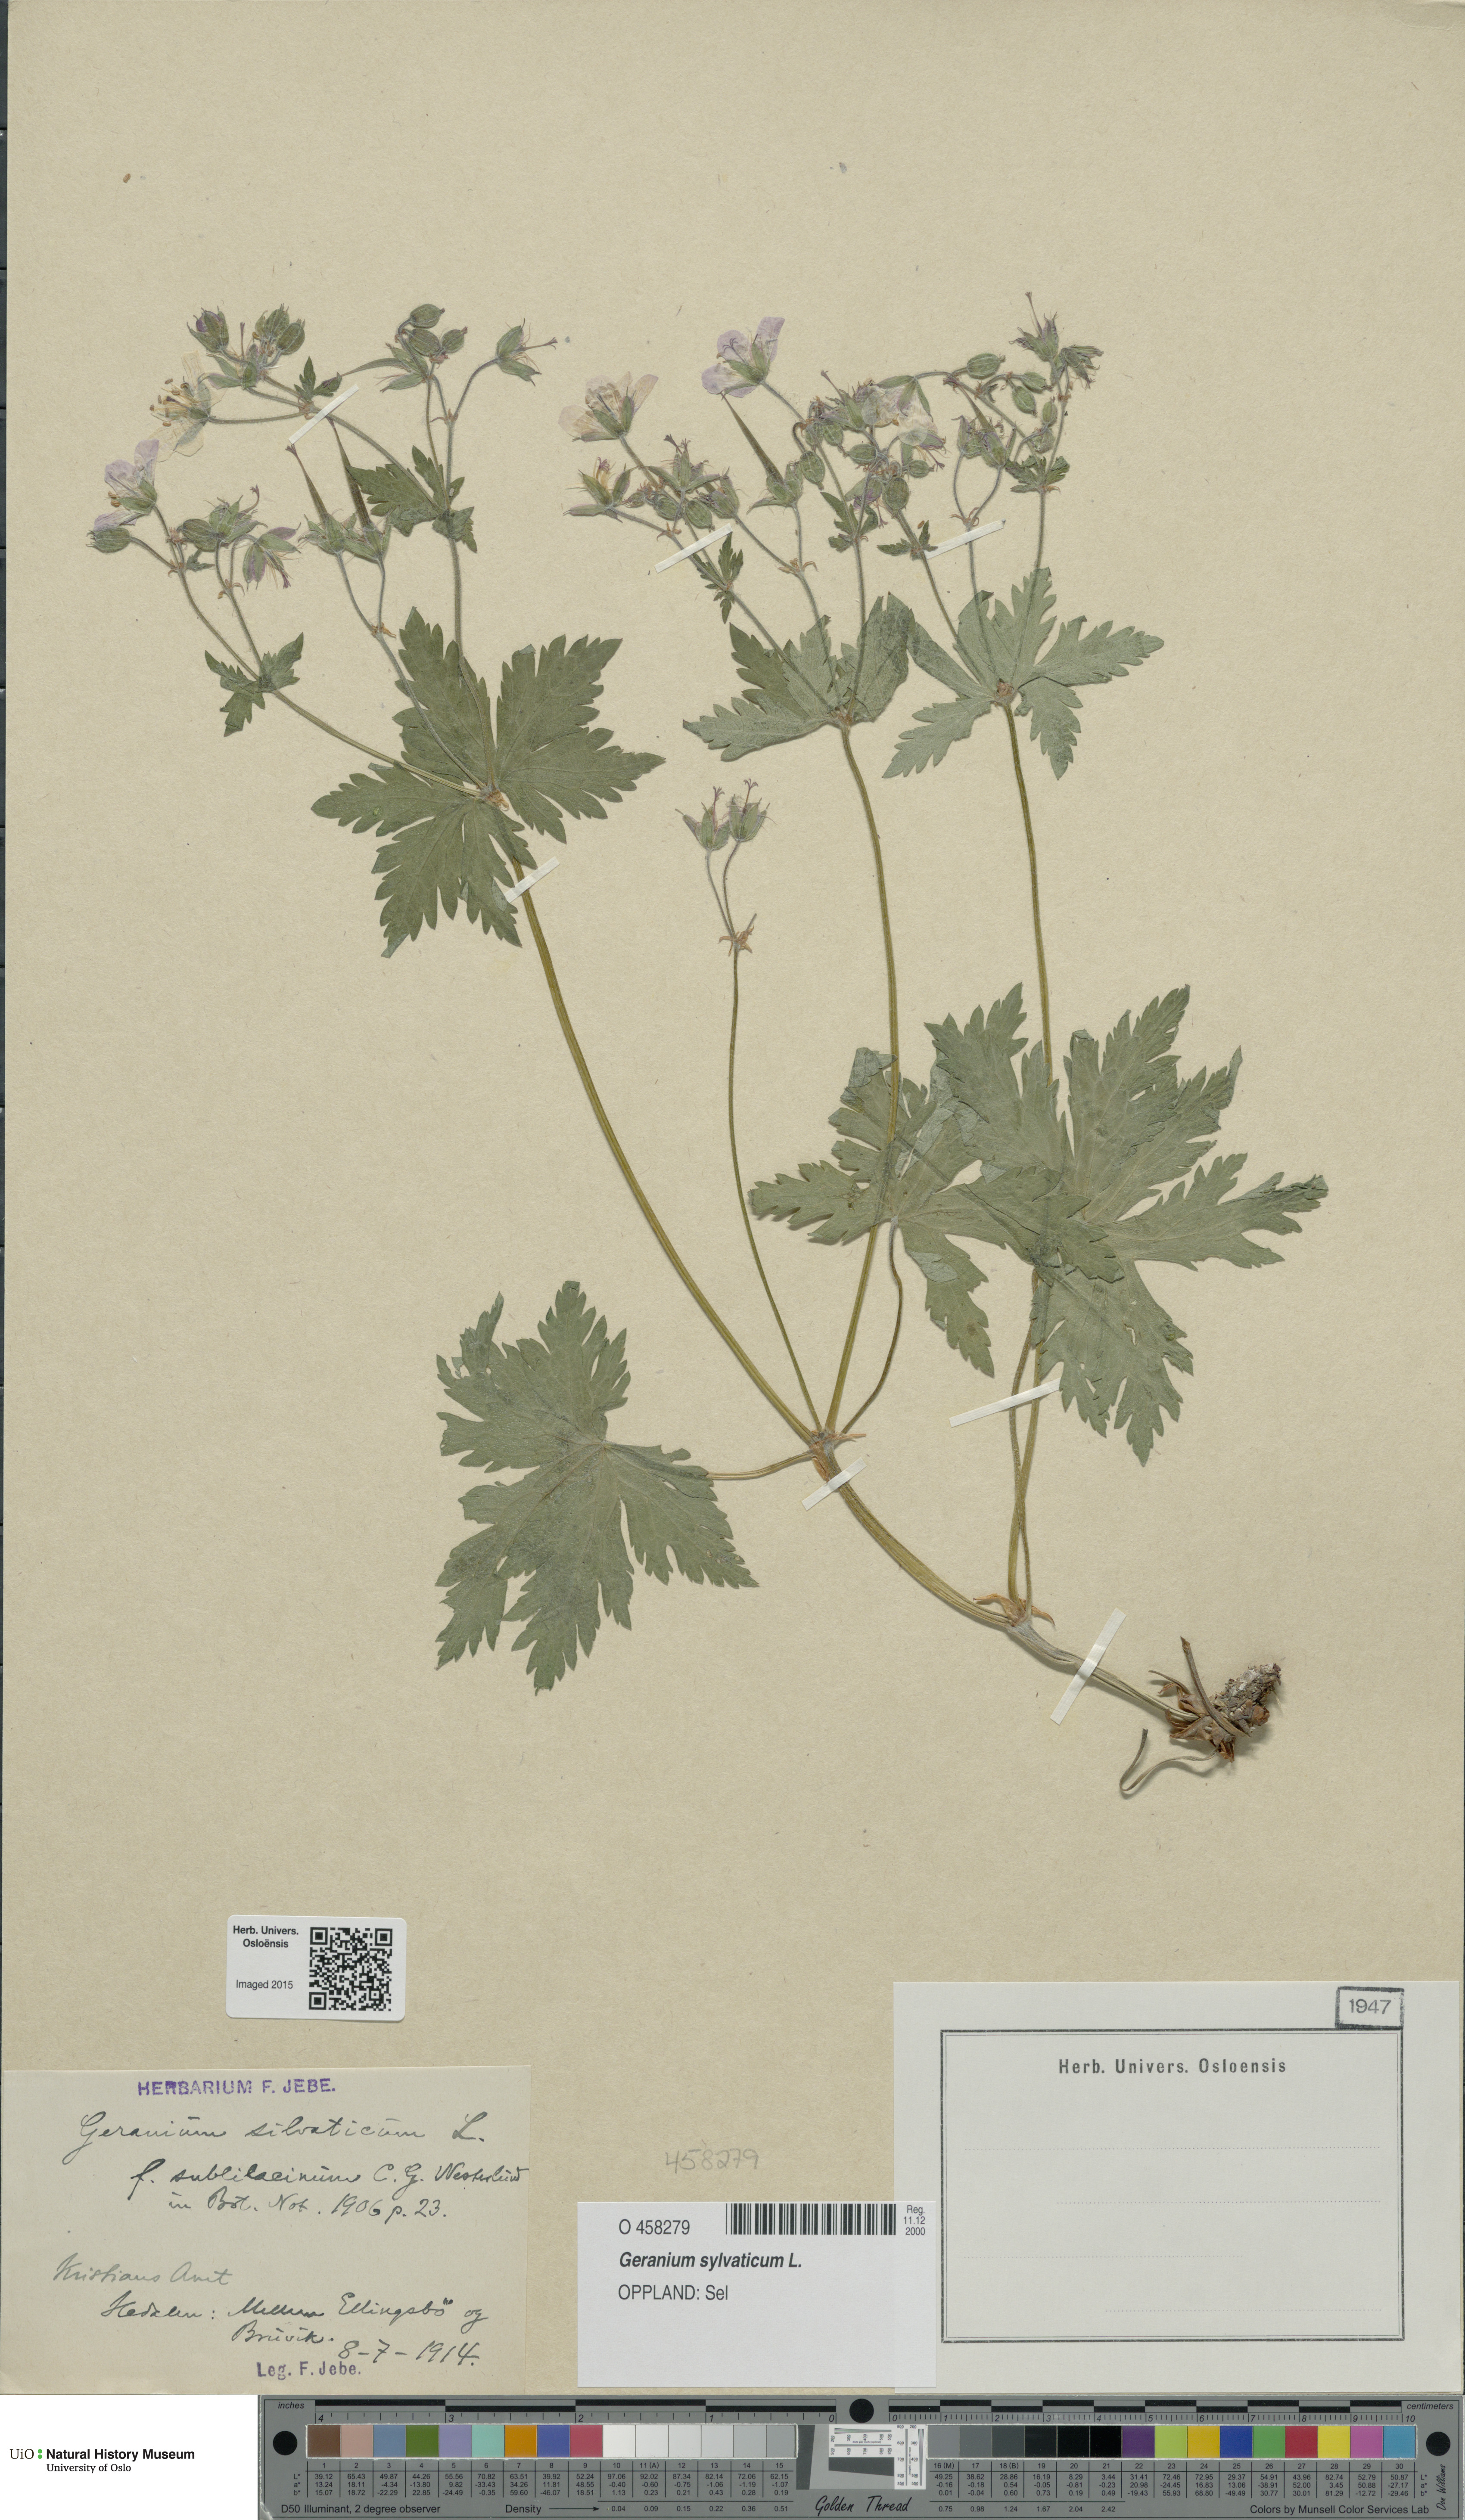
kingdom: Plantae
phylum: Tracheophyta
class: Magnoliopsida
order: Geraniales
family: Geraniaceae
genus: Geranium
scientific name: Geranium sylvaticum
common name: Wood crane's-bill
